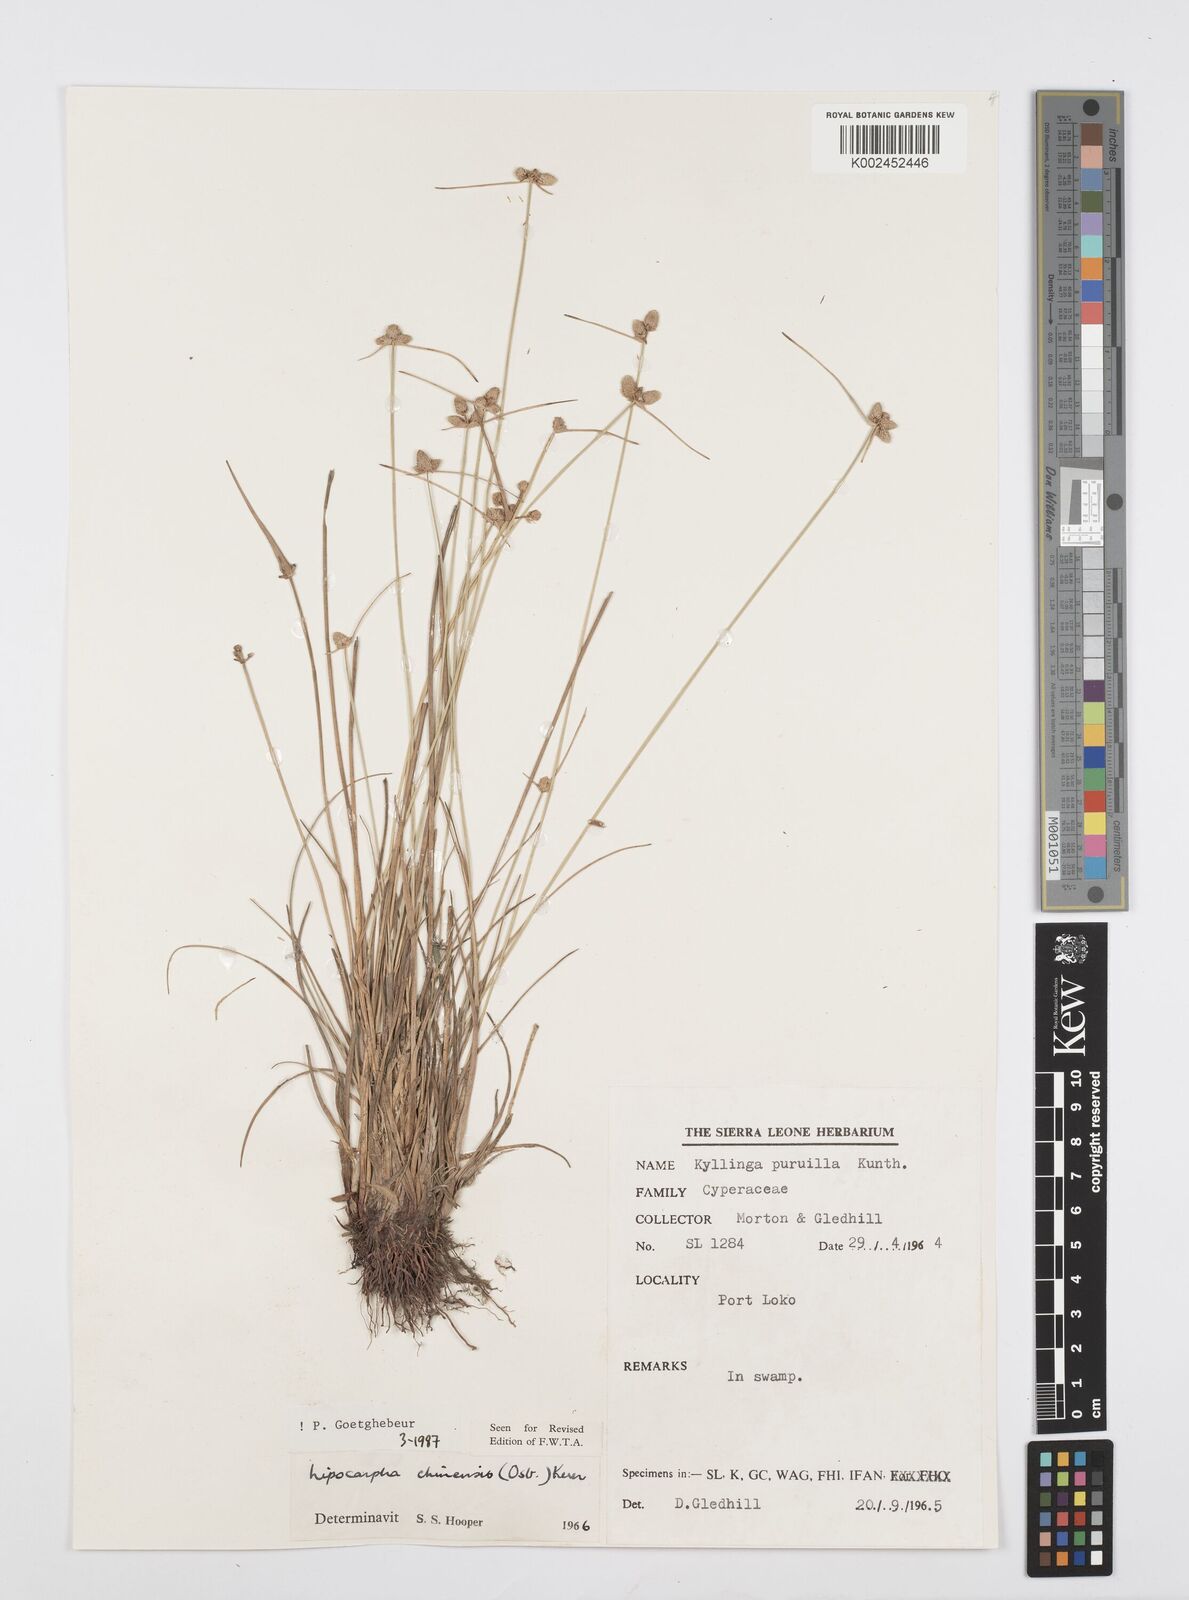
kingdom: Plantae
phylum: Tracheophyta
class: Liliopsida
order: Poales
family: Cyperaceae
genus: Cyperus
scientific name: Cyperus albescens
